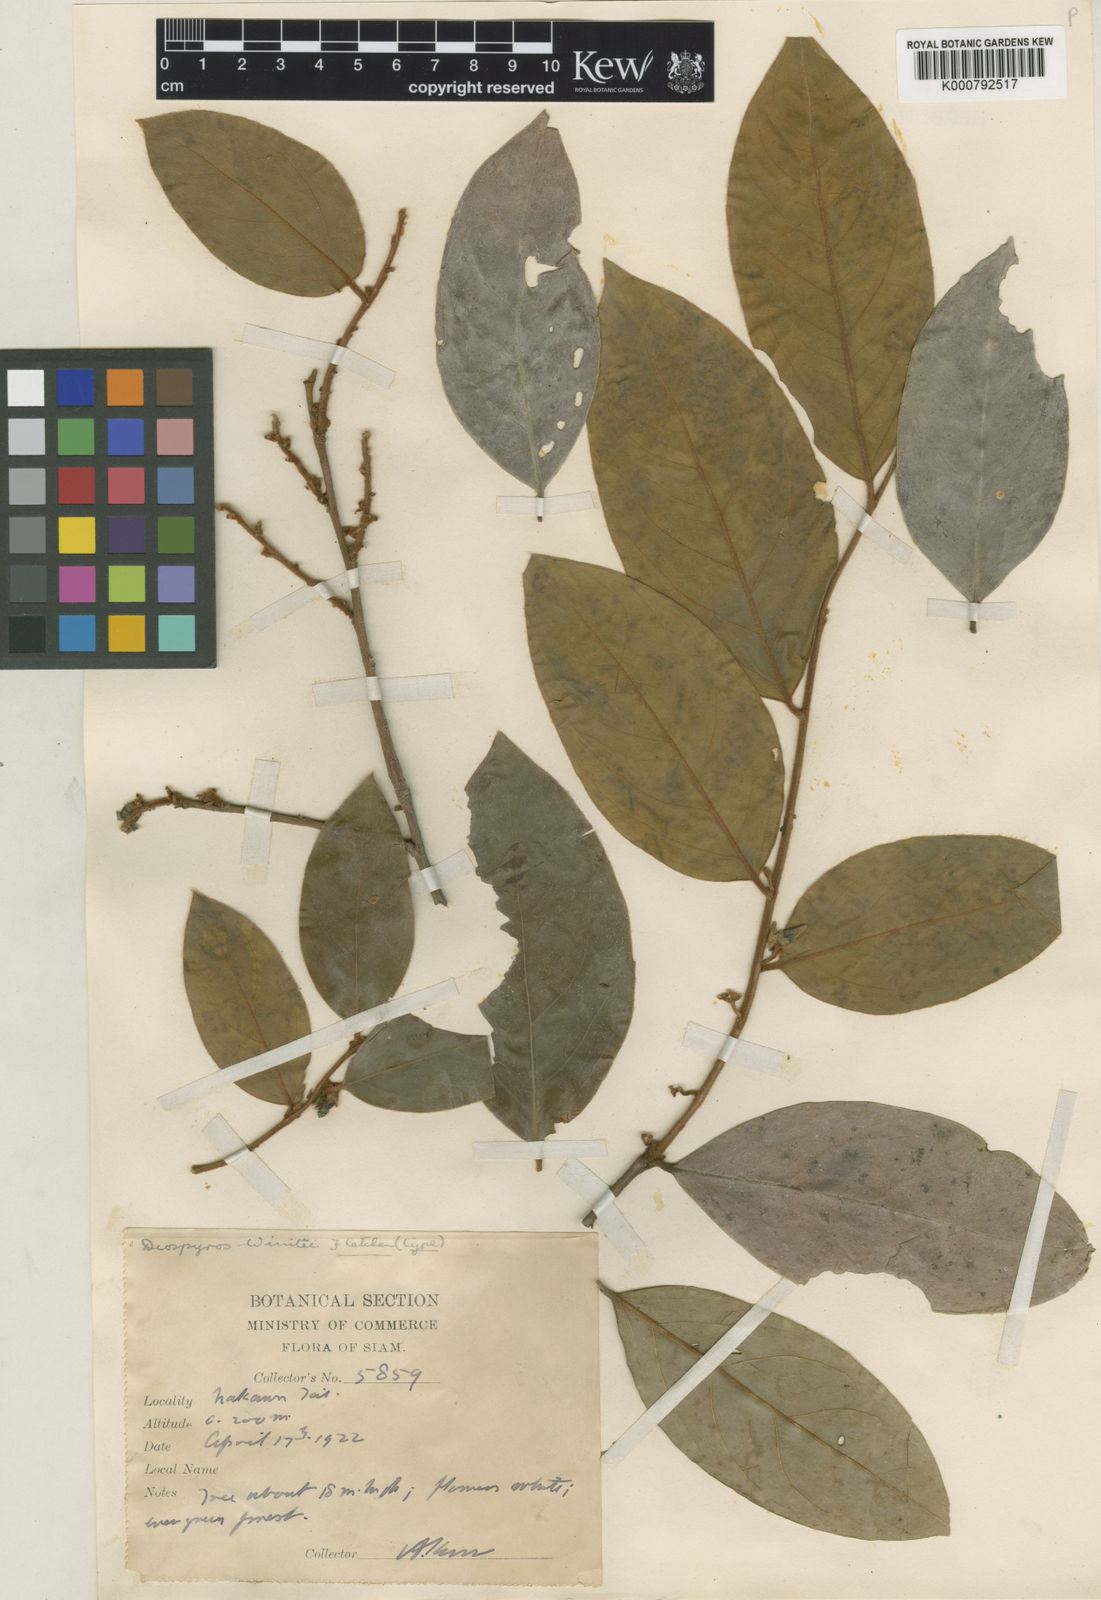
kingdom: Plantae
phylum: Tracheophyta
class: Magnoliopsida
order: Ericales
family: Ebenaceae
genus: Diospyros
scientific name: Diospyros winitii
